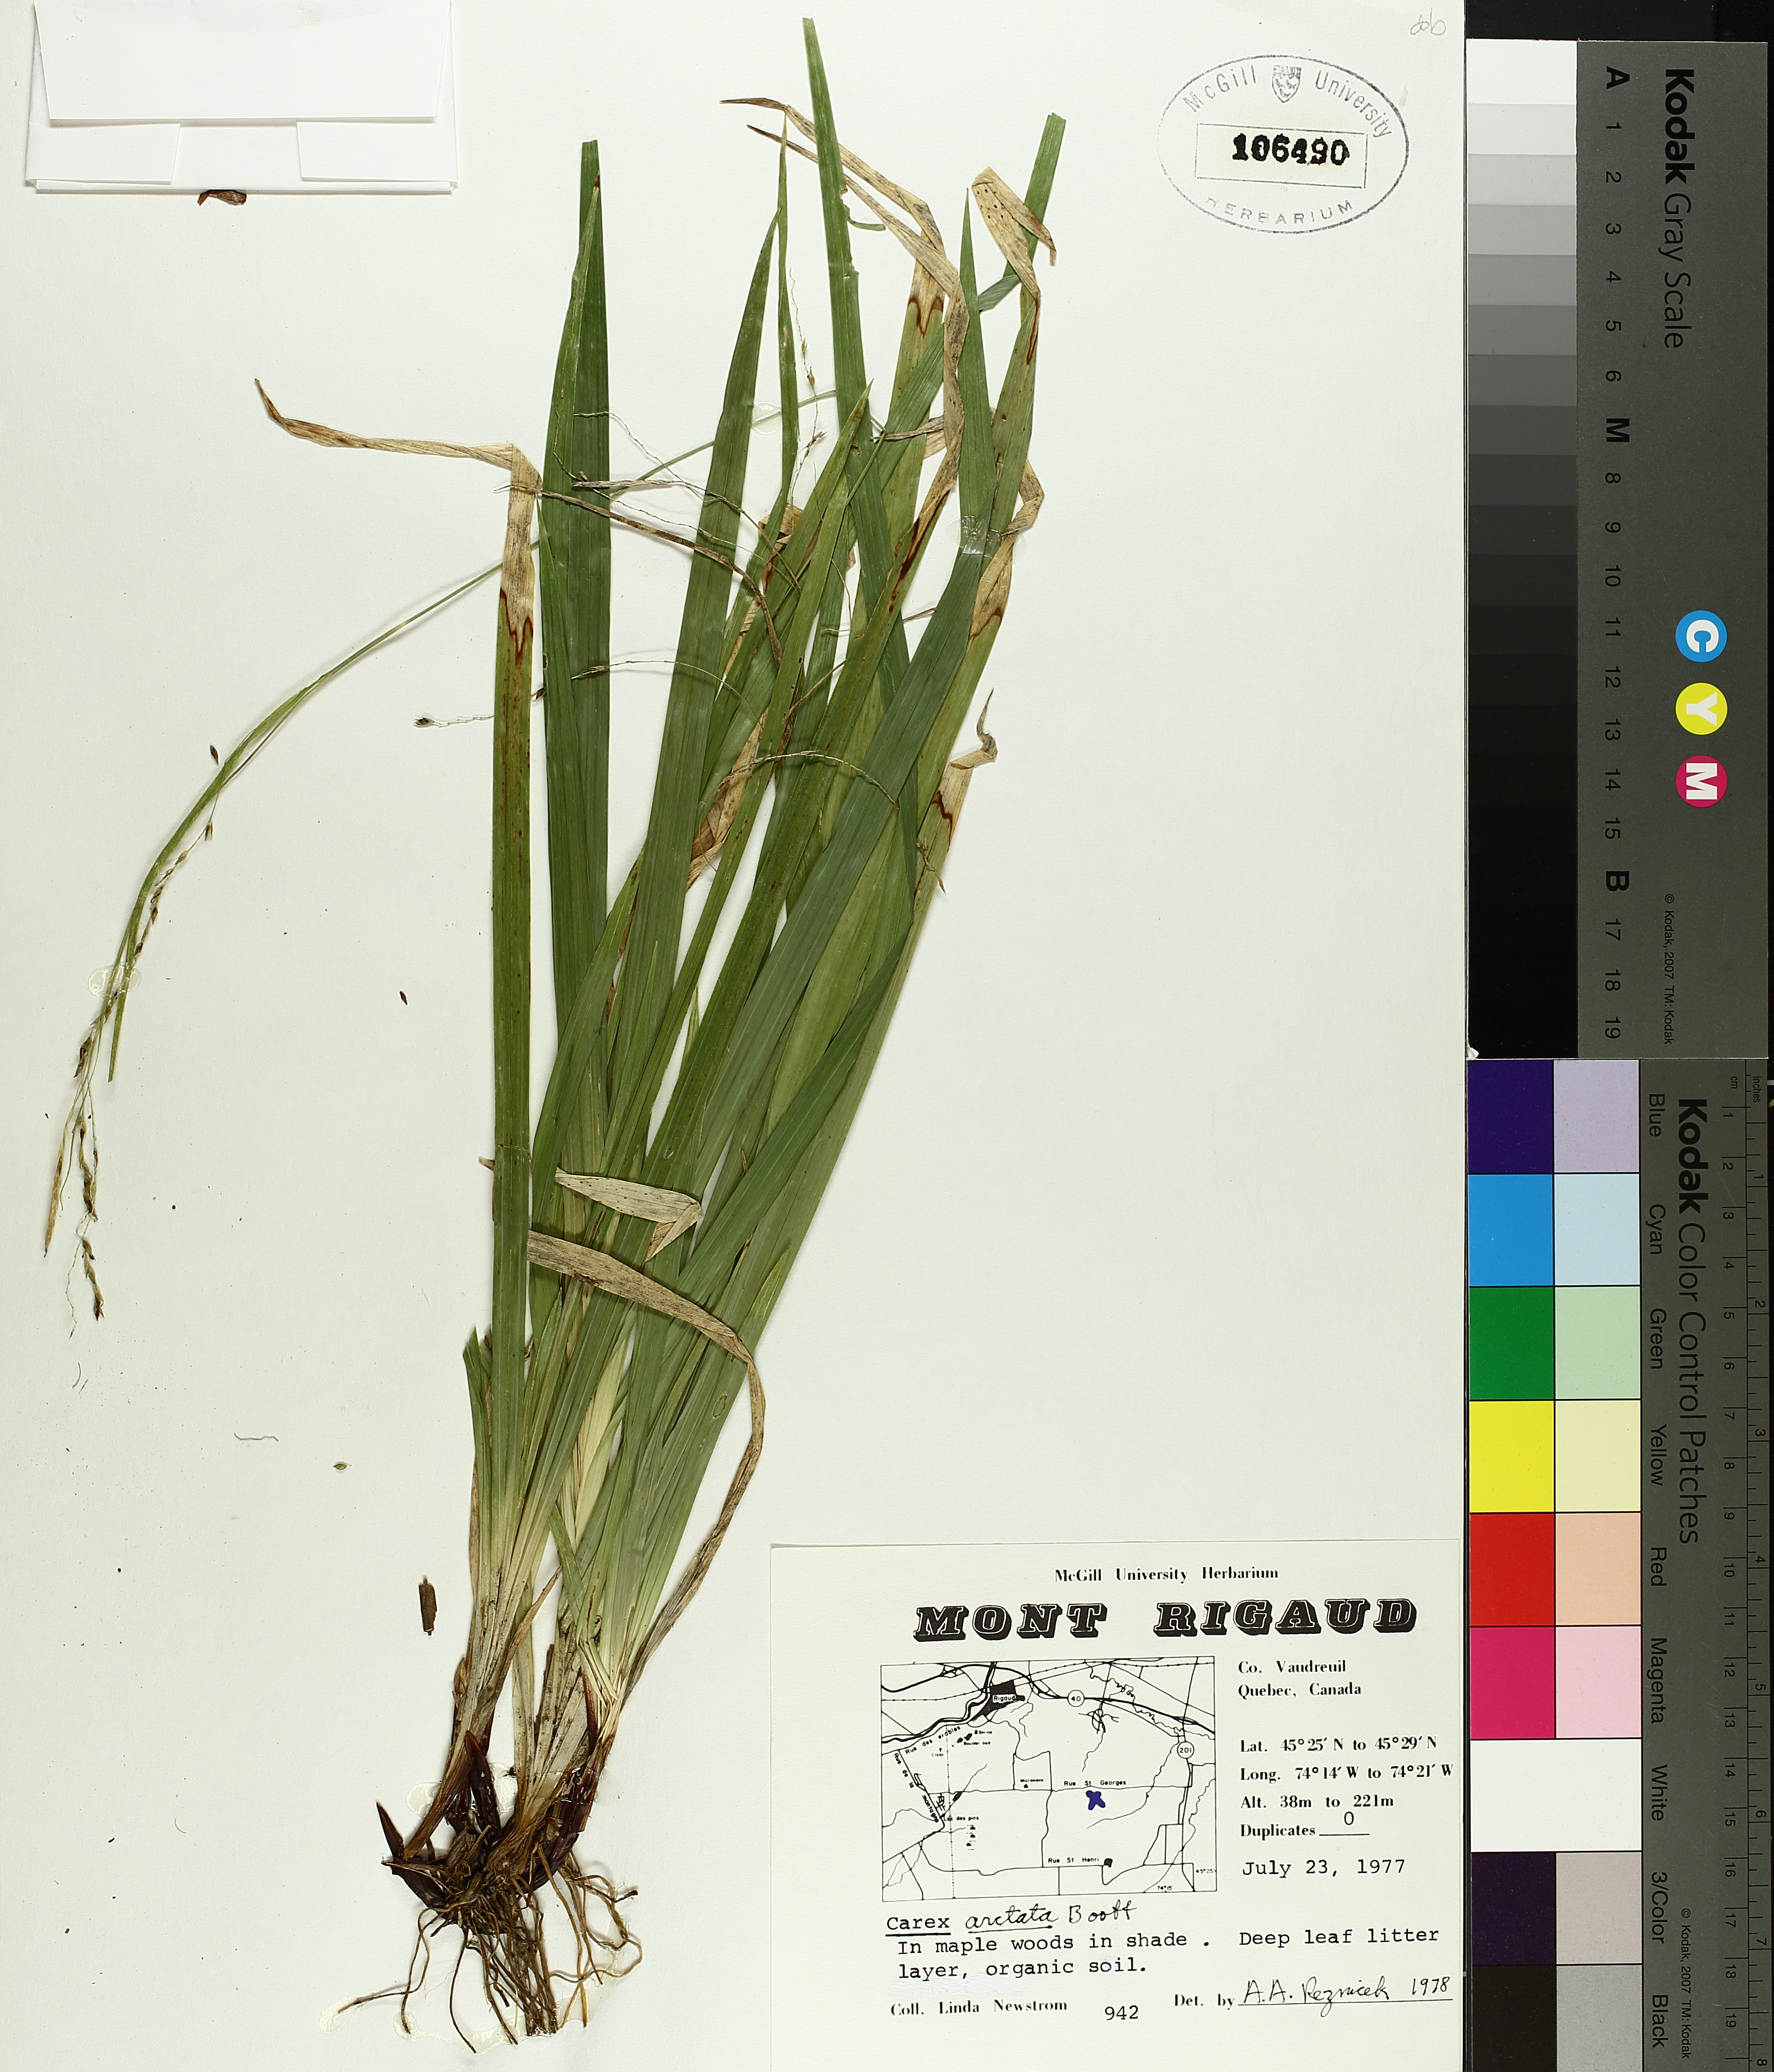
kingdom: Plantae
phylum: Tracheophyta
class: Liliopsida
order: Poales
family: Cyperaceae
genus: Carex
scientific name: Carex arctata
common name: Black sedge
